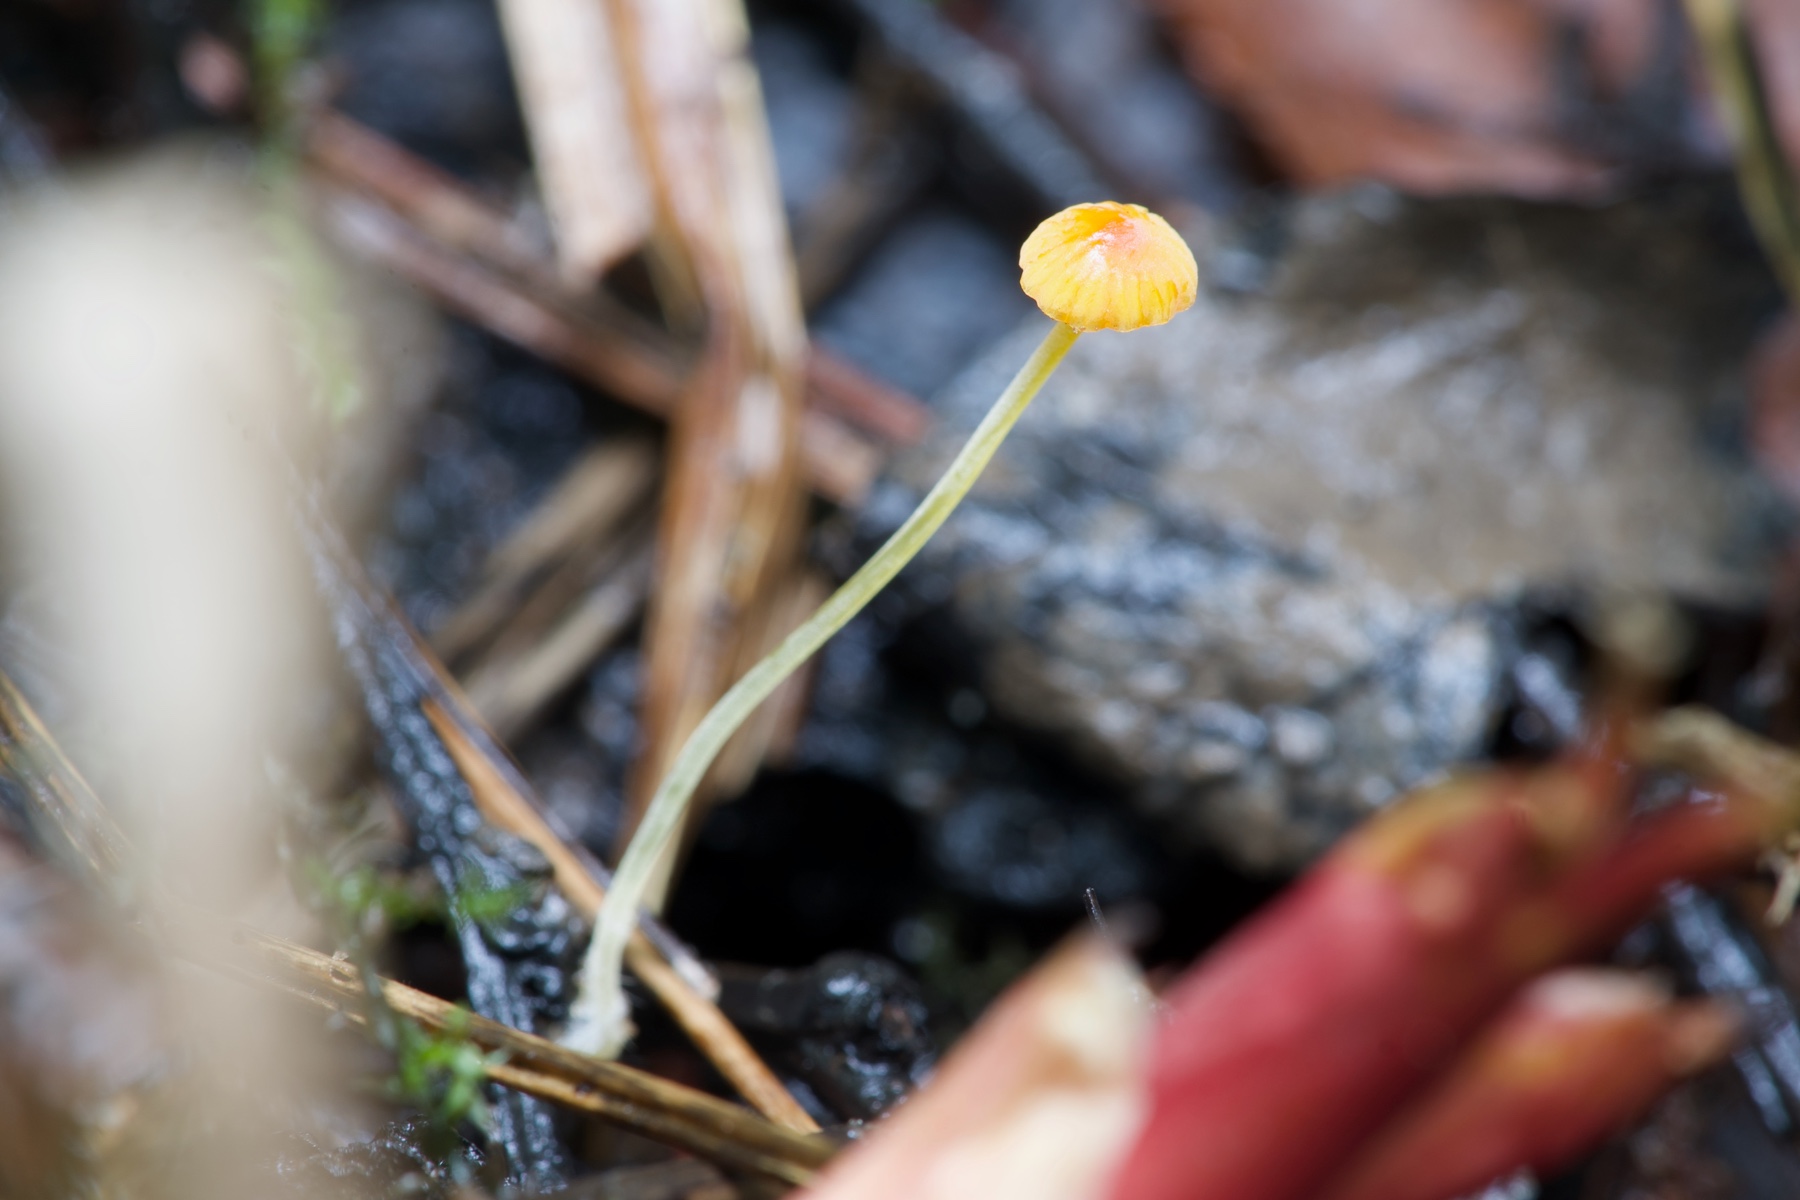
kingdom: Fungi
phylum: Basidiomycota
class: Agaricomycetes
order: Agaricales
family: Mycenaceae
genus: Mycena
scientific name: Mycena acicula
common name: orange huesvamp
